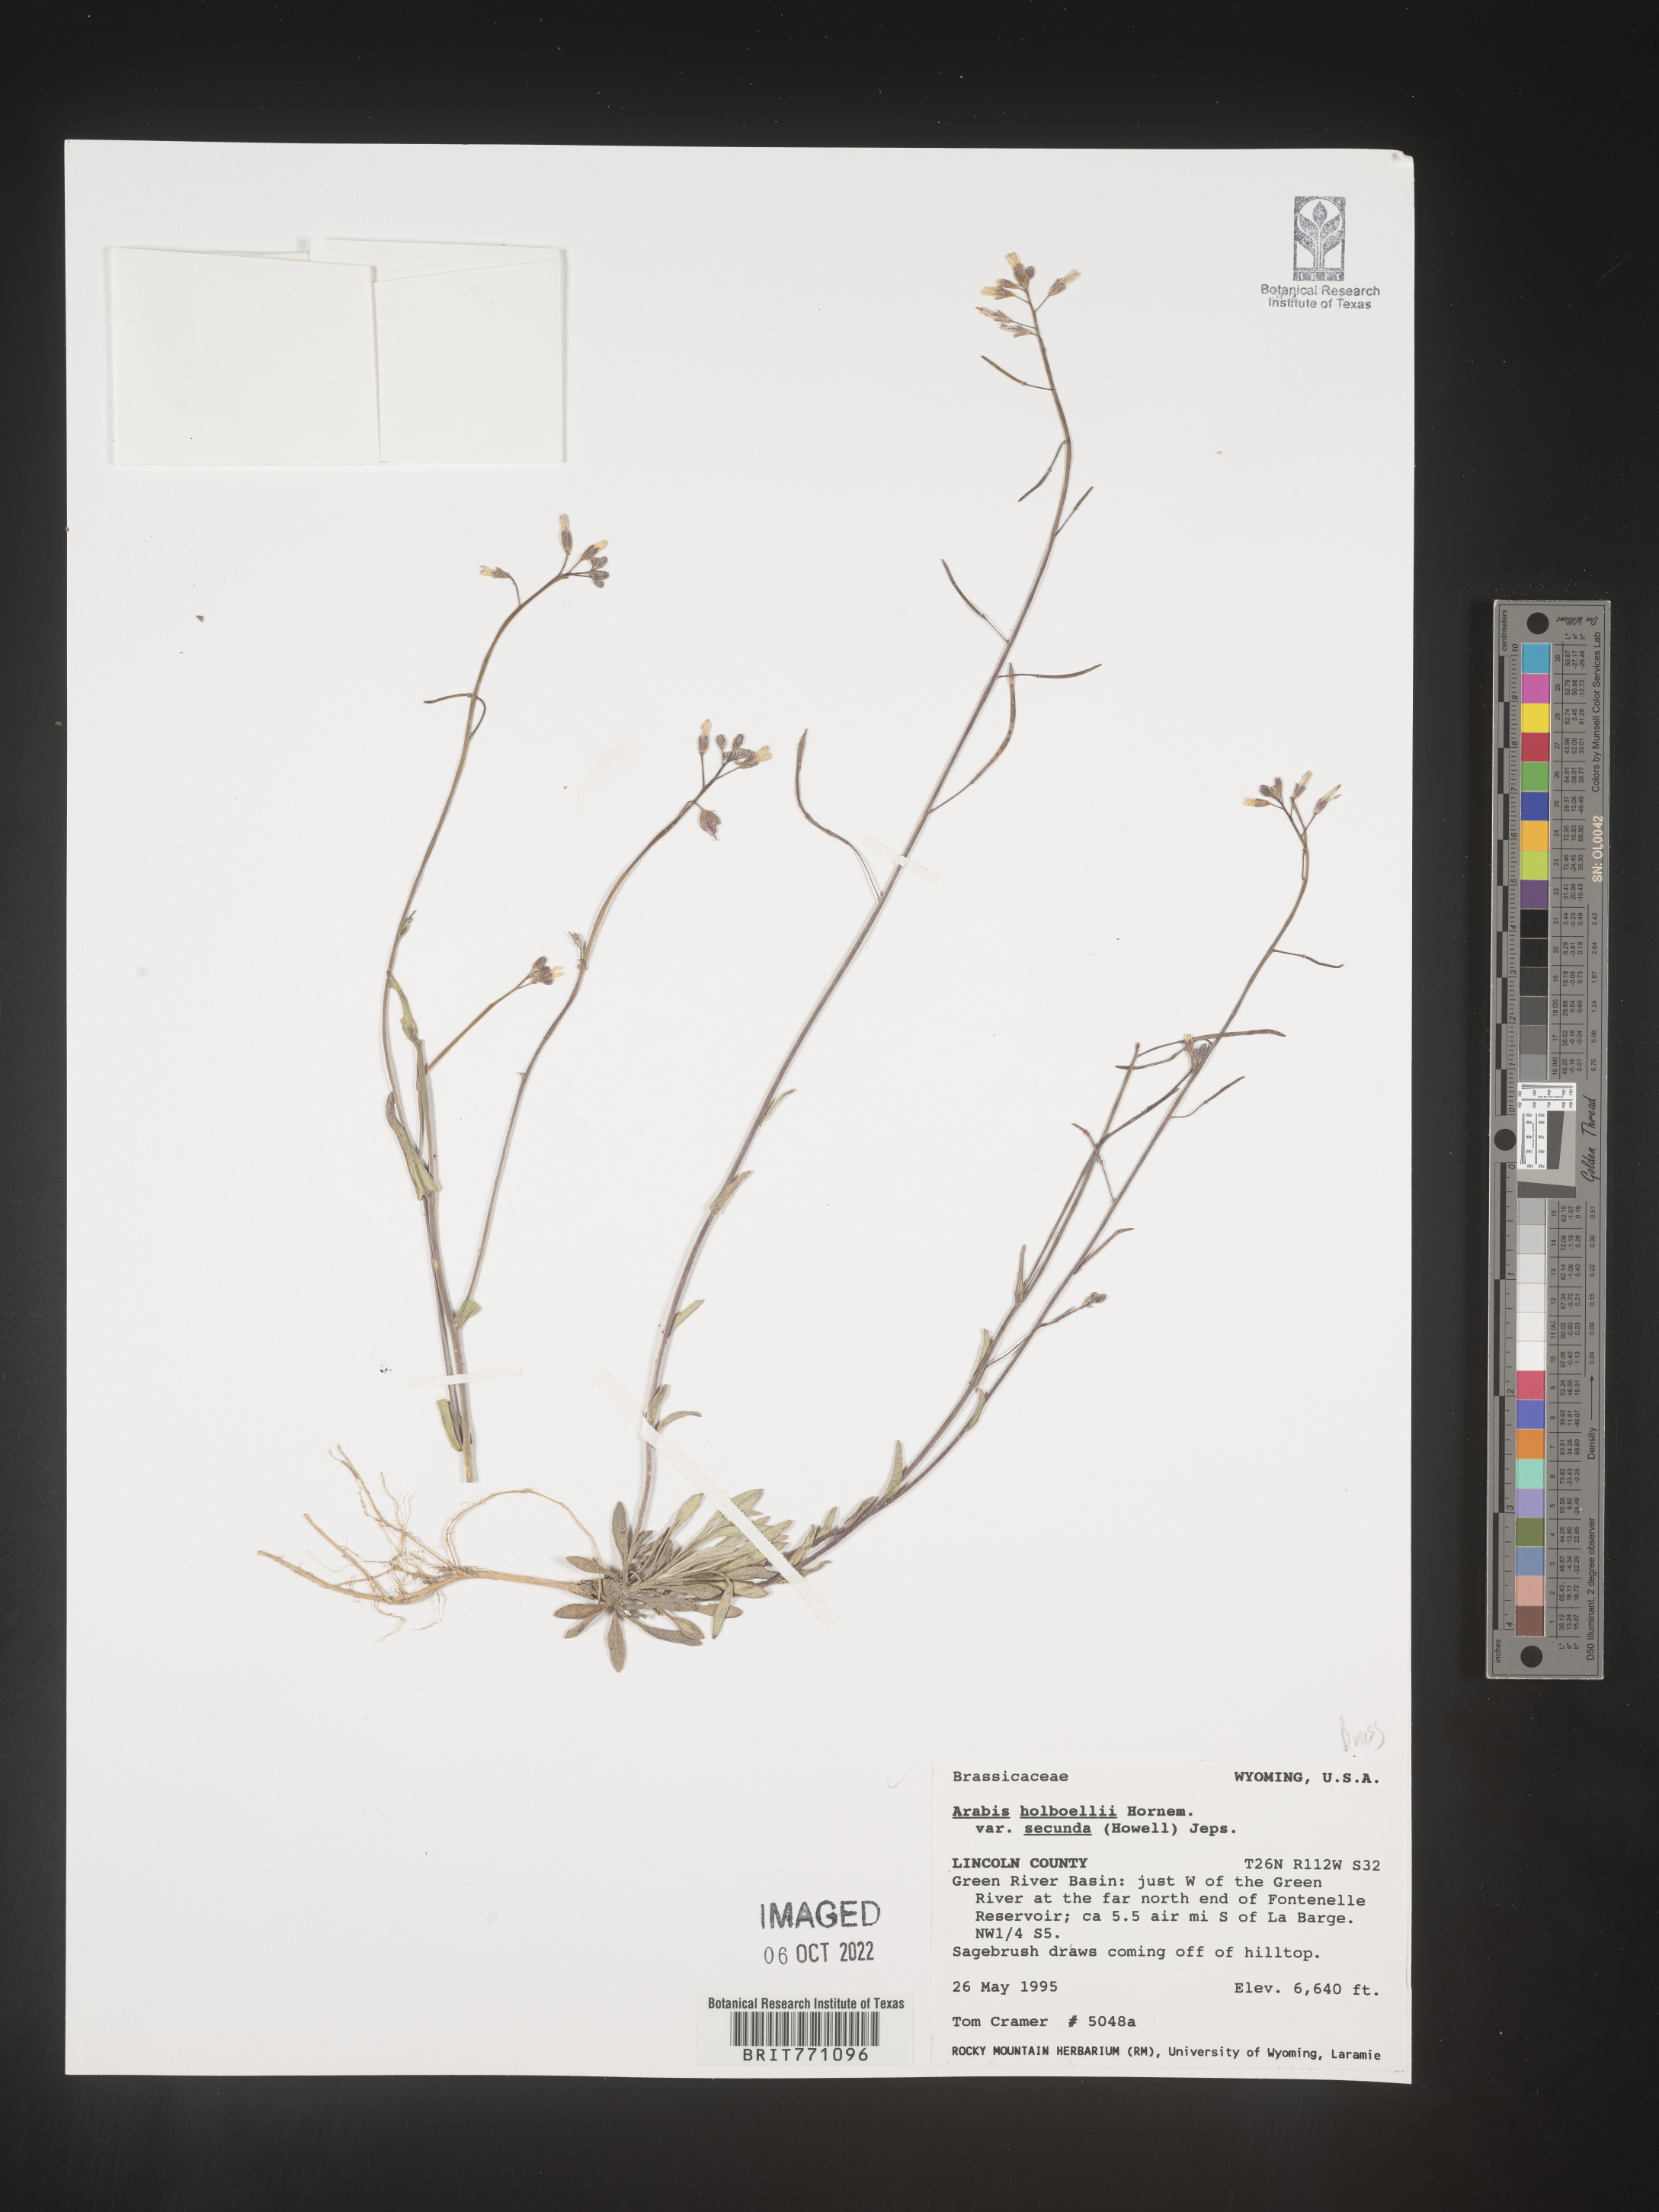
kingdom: Plantae
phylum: Tracheophyta
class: Magnoliopsida
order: Brassicales
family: Brassicaceae
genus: Boechera
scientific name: Boechera holboellii
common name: Holboell's rockcress
